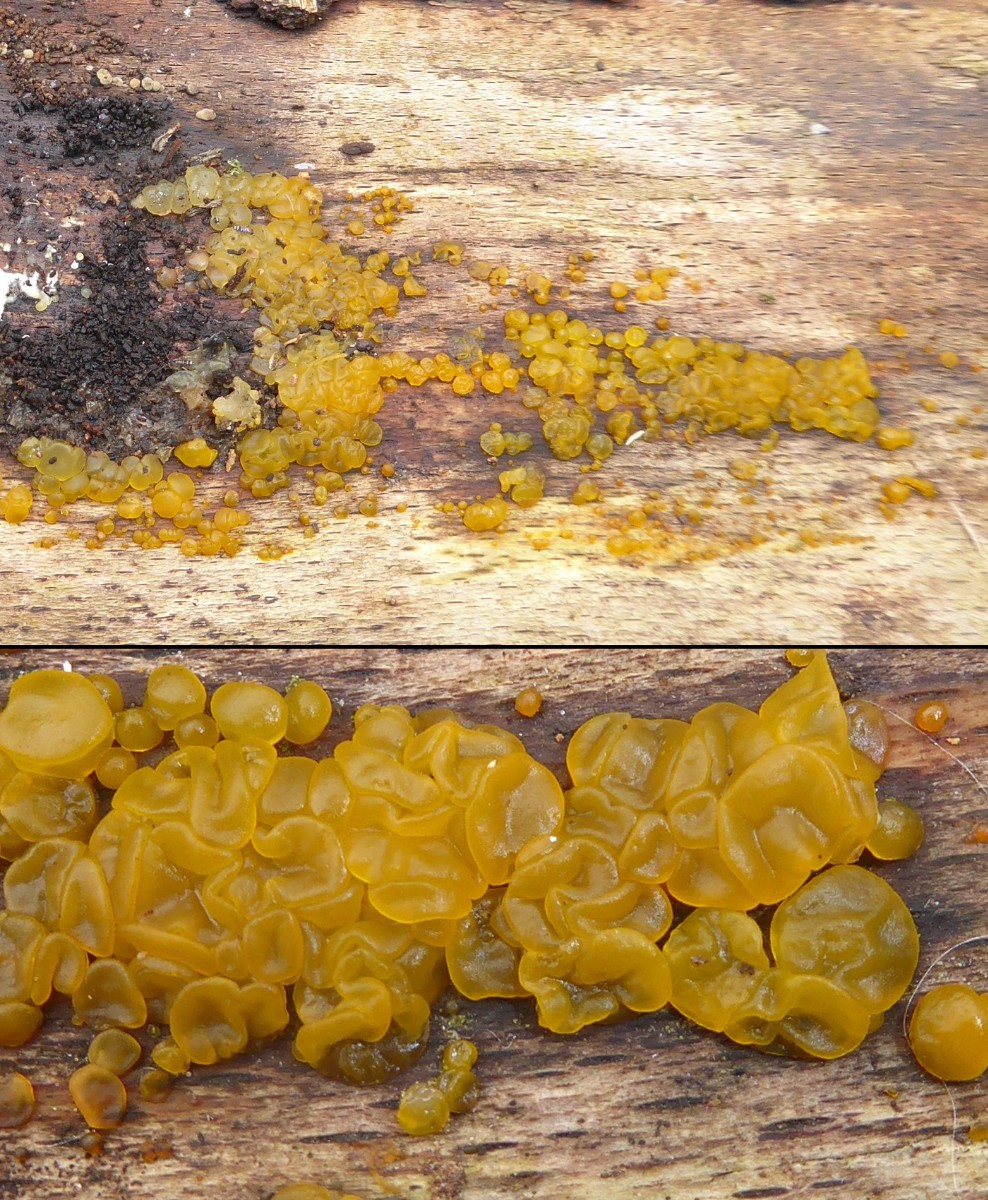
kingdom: Fungi
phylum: Basidiomycota
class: Dacrymycetes
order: Dacrymycetales
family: Dacrymycetaceae
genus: Dacrymyces
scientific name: Dacrymyces lacrymalis
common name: rynket tåresvamp
